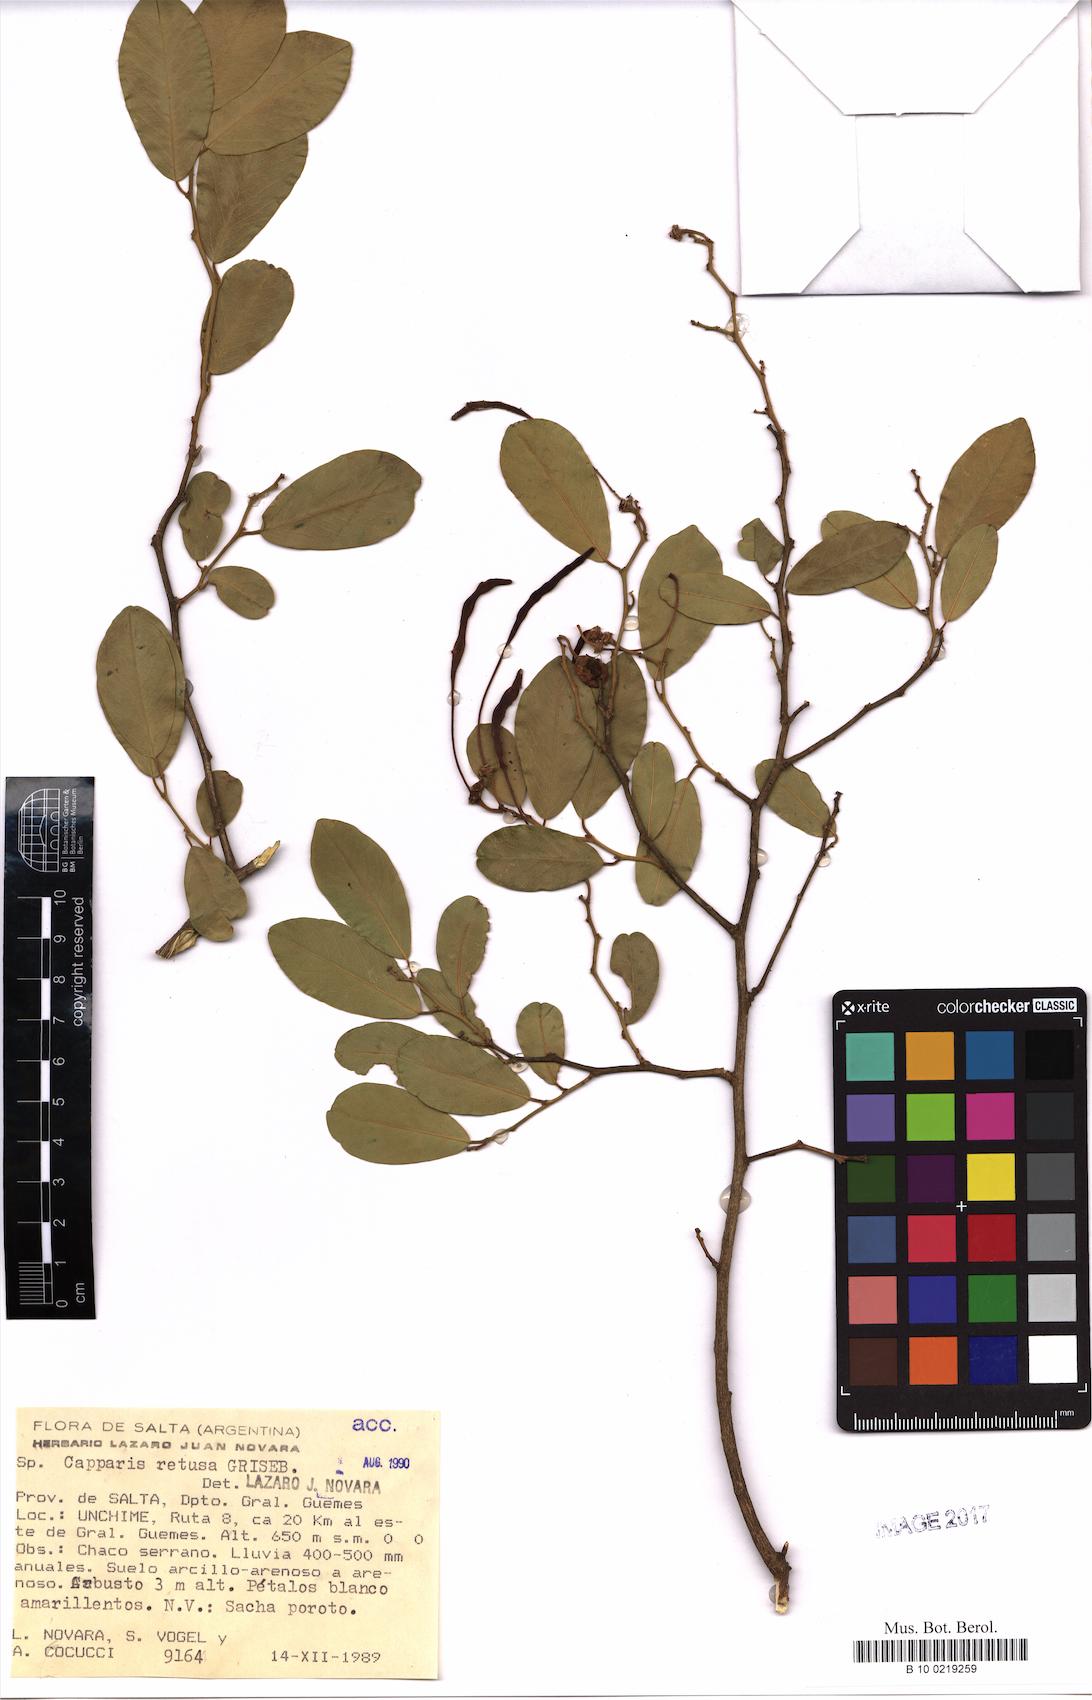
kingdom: Plantae
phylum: Tracheophyta
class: Magnoliopsida
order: Brassicales
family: Capparaceae
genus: Cynophalla
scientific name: Cynophalla retusa
